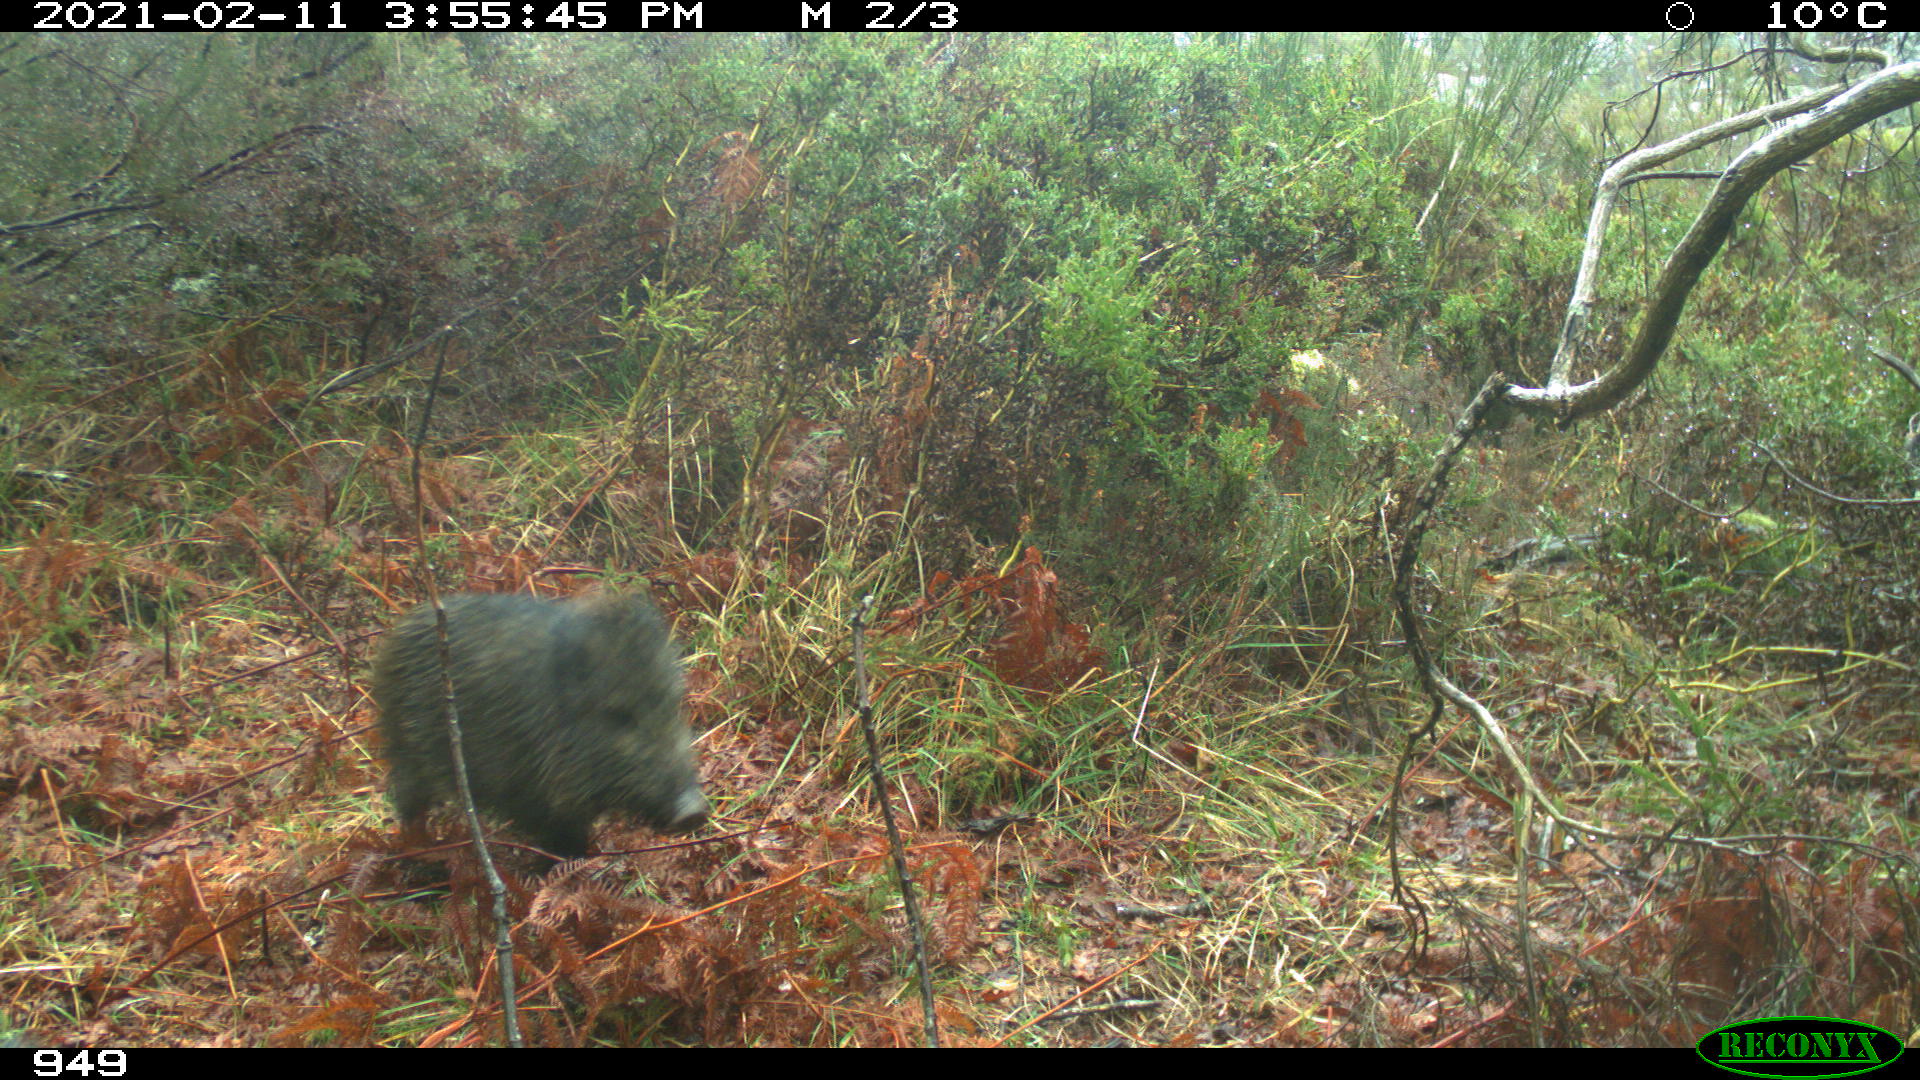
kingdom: Animalia
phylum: Chordata
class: Mammalia
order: Artiodactyla
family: Suidae
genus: Sus
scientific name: Sus scrofa
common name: Wild boar
